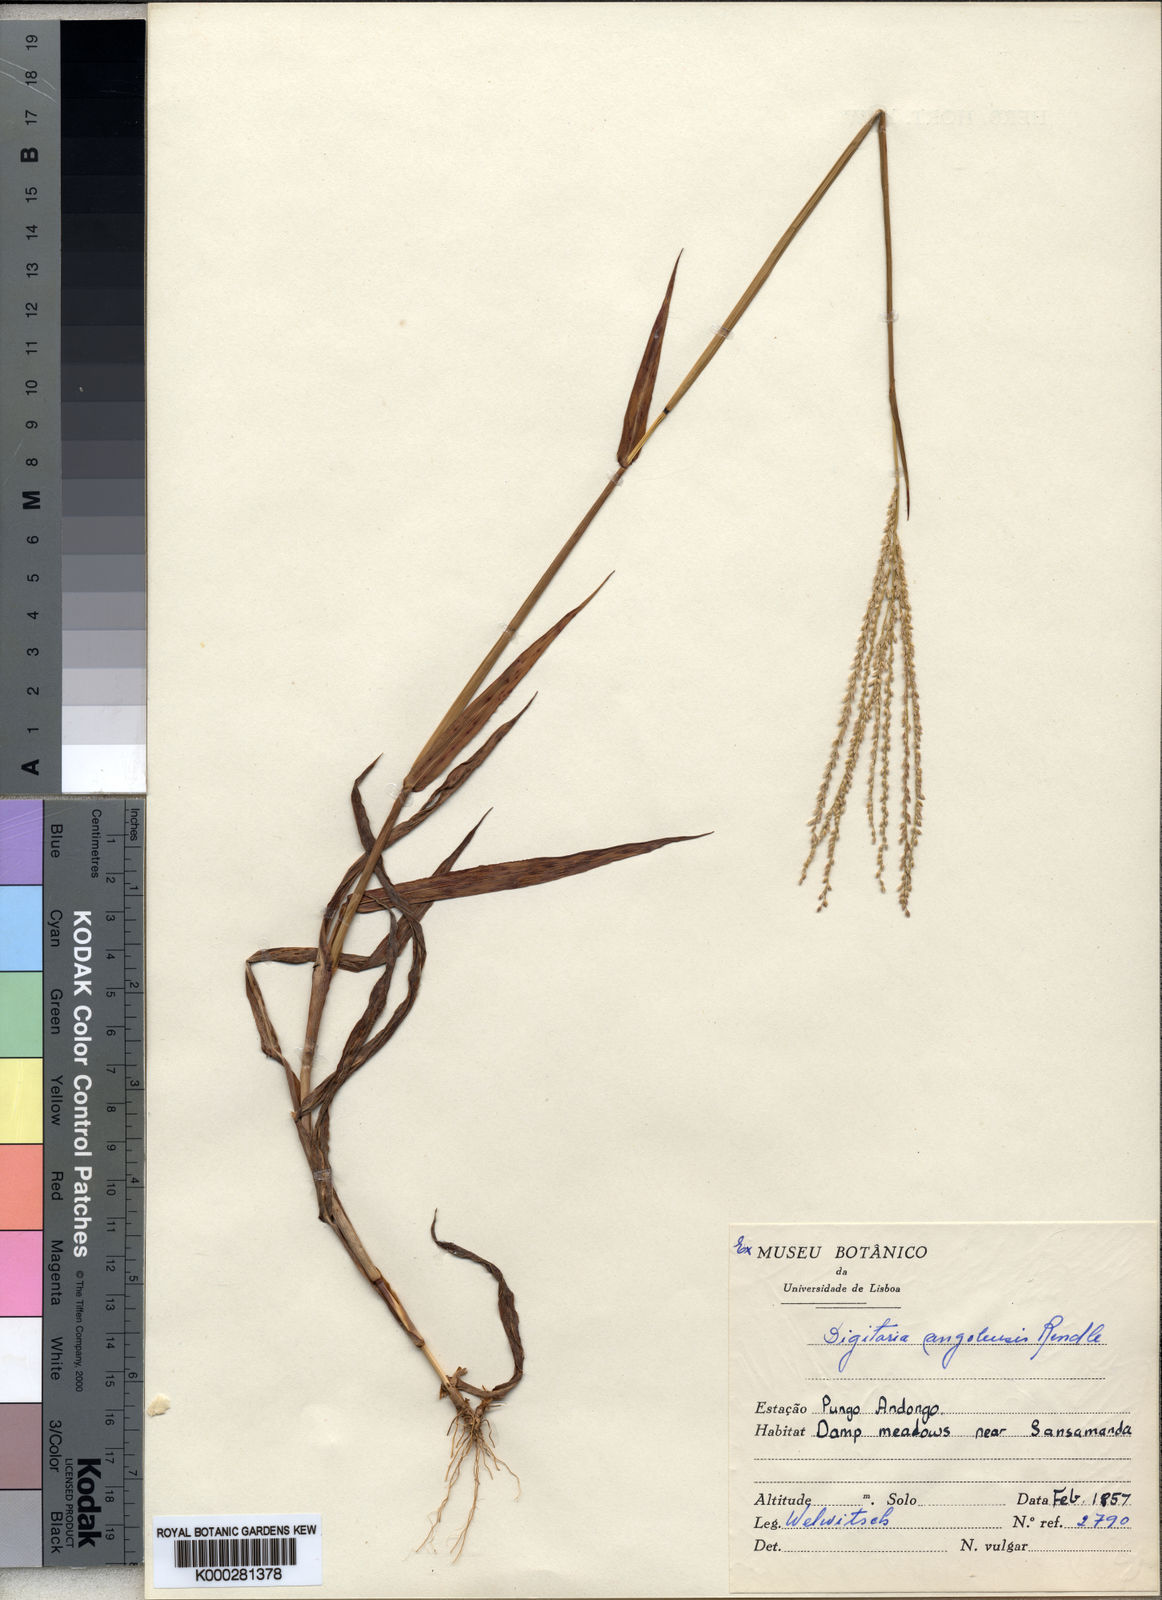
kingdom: Plantae
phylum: Tracheophyta
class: Liliopsida
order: Poales
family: Poaceae
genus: Digitaria
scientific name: Digitaria angolensis
